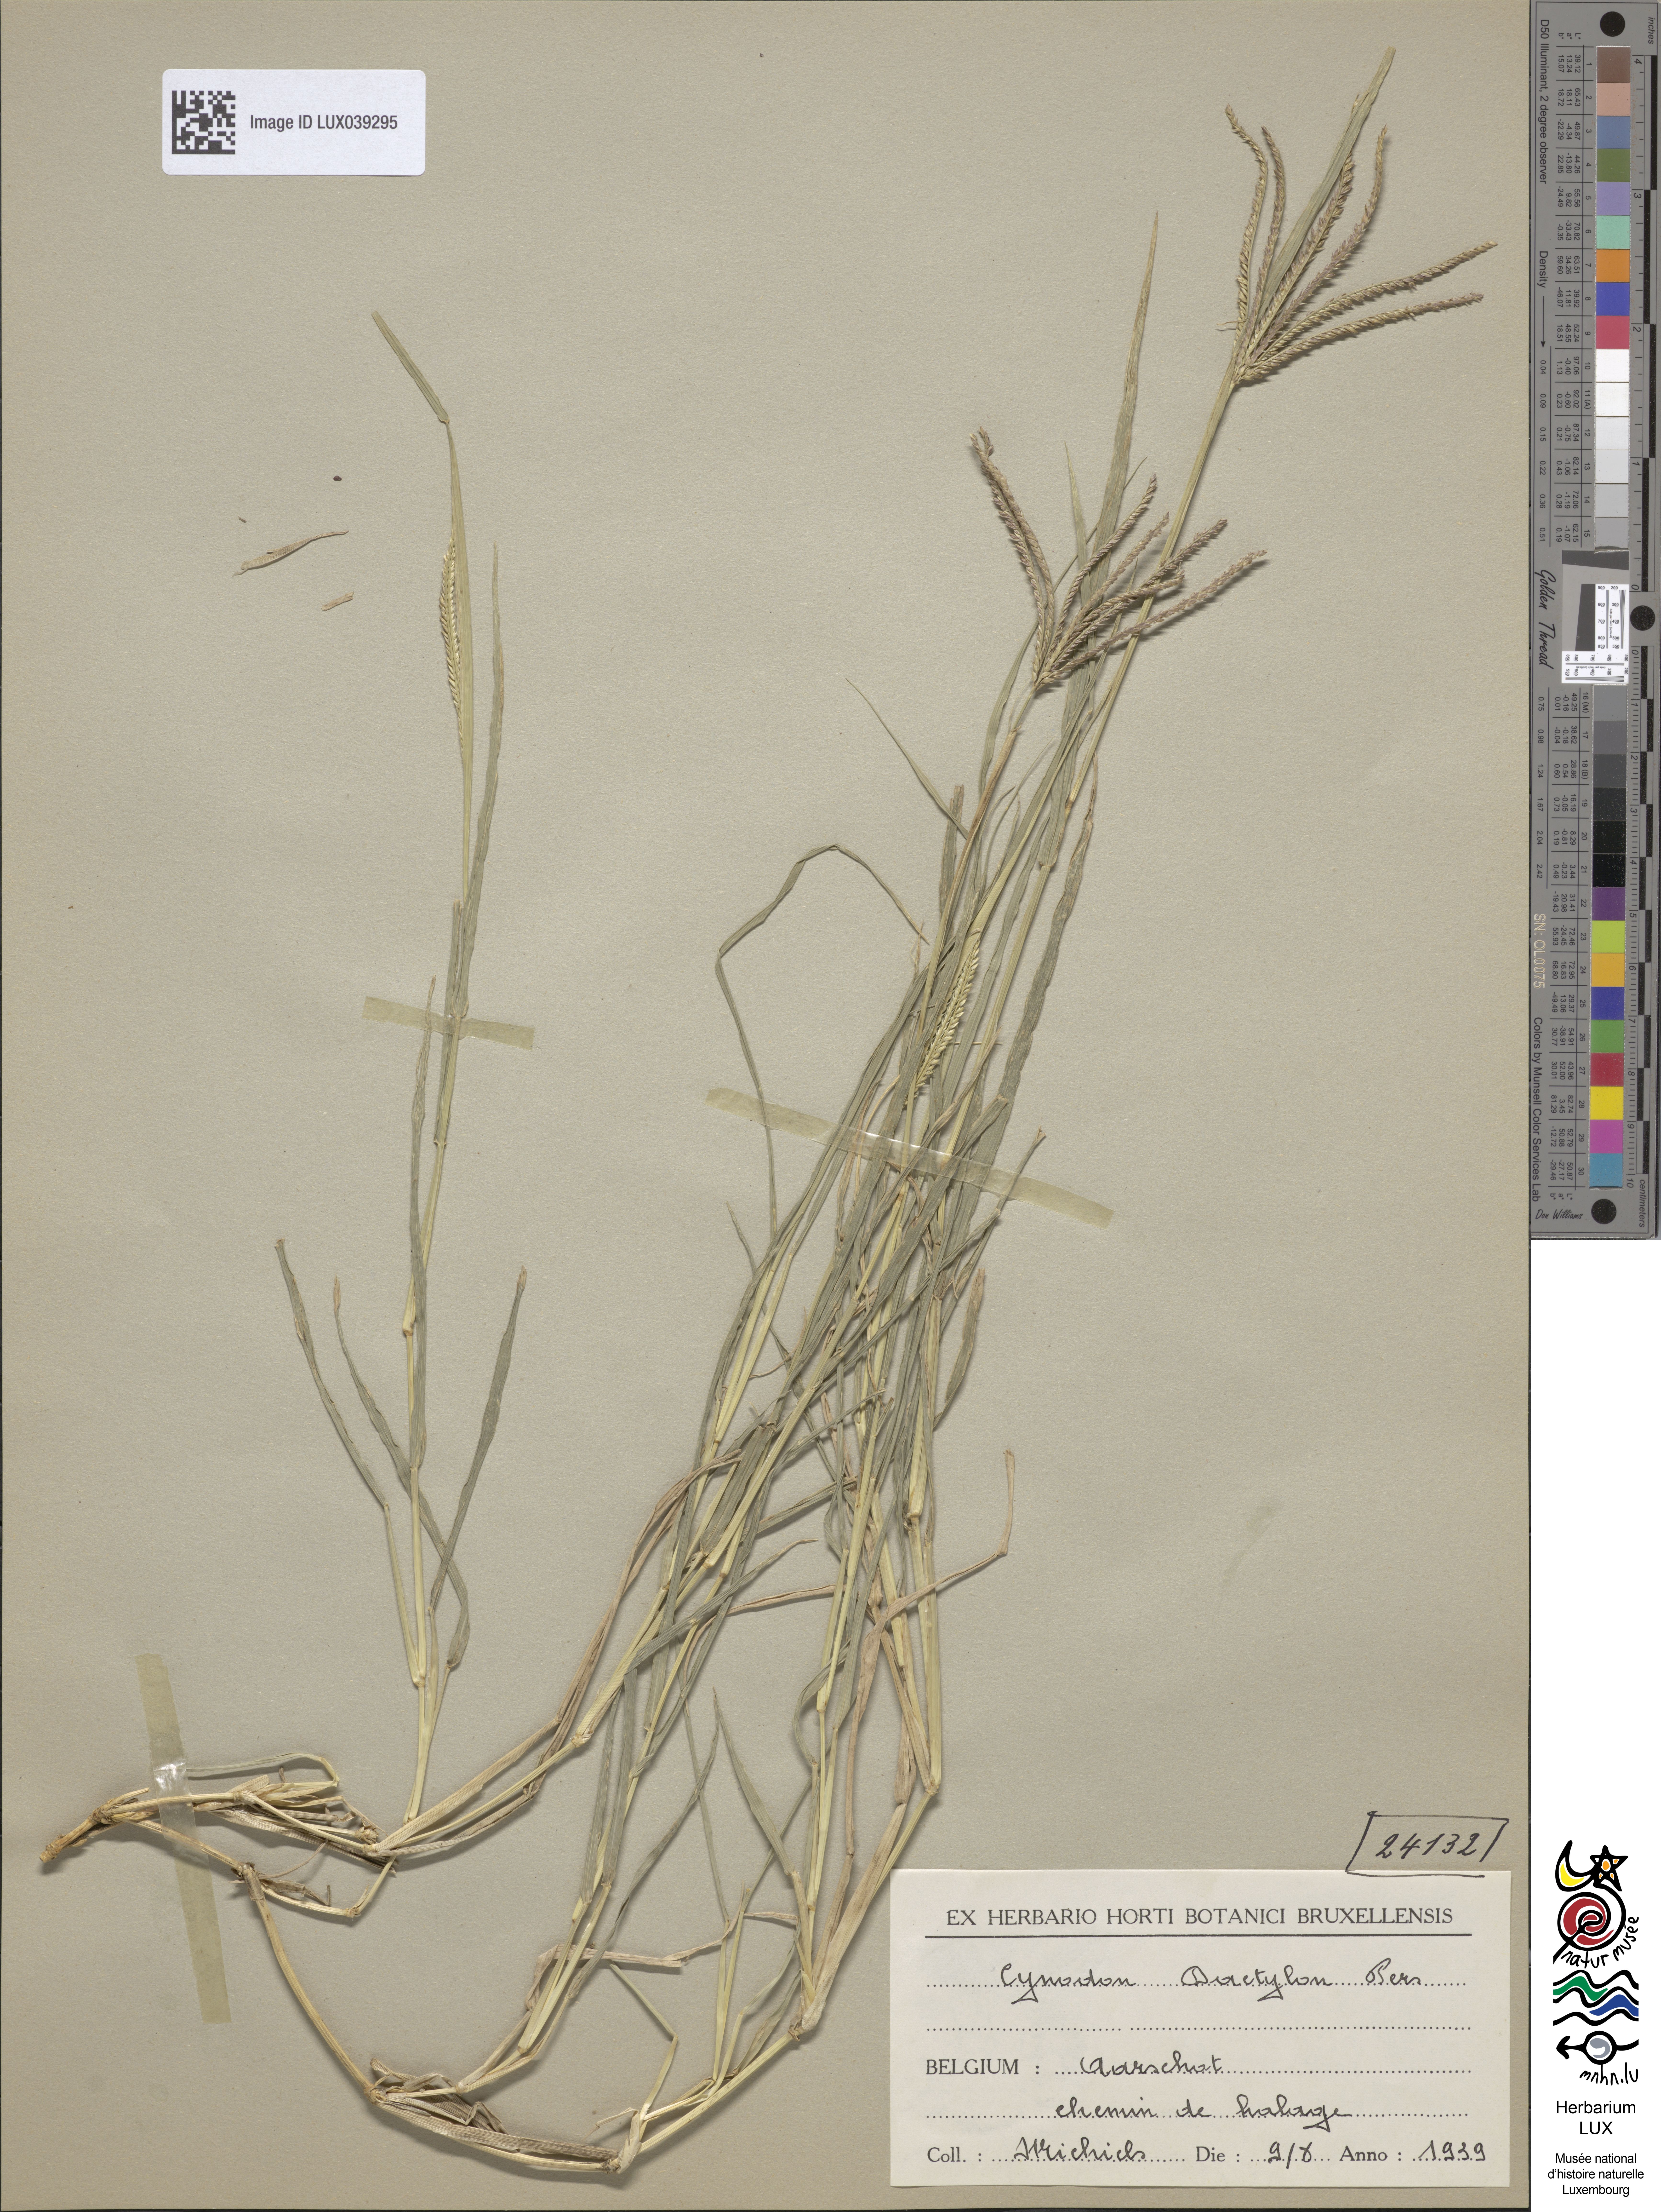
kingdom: Plantae
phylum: Tracheophyta
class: Liliopsida
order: Poales
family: Poaceae
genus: Cynodon
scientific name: Cynodon dactylon
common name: Bermuda grass
